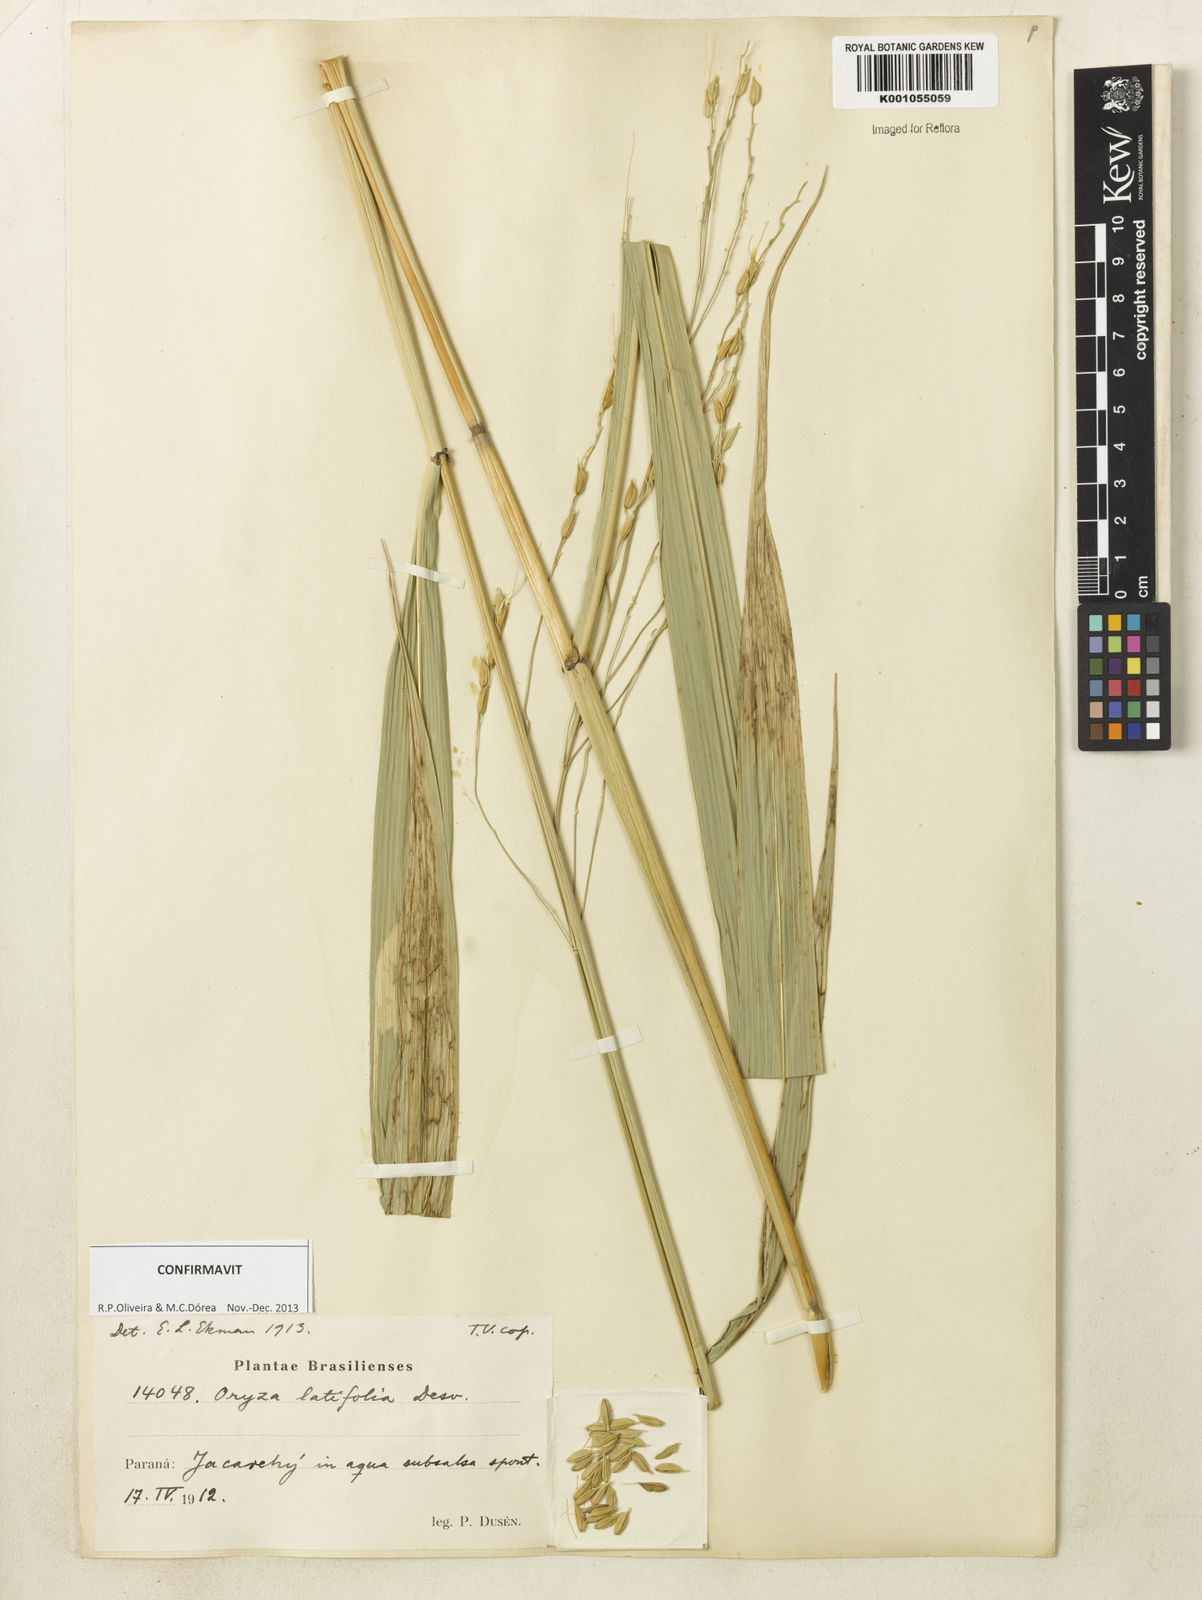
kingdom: Plantae
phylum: Tracheophyta
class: Liliopsida
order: Poales
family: Poaceae
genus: Oryza
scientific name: Oryza latifolia
